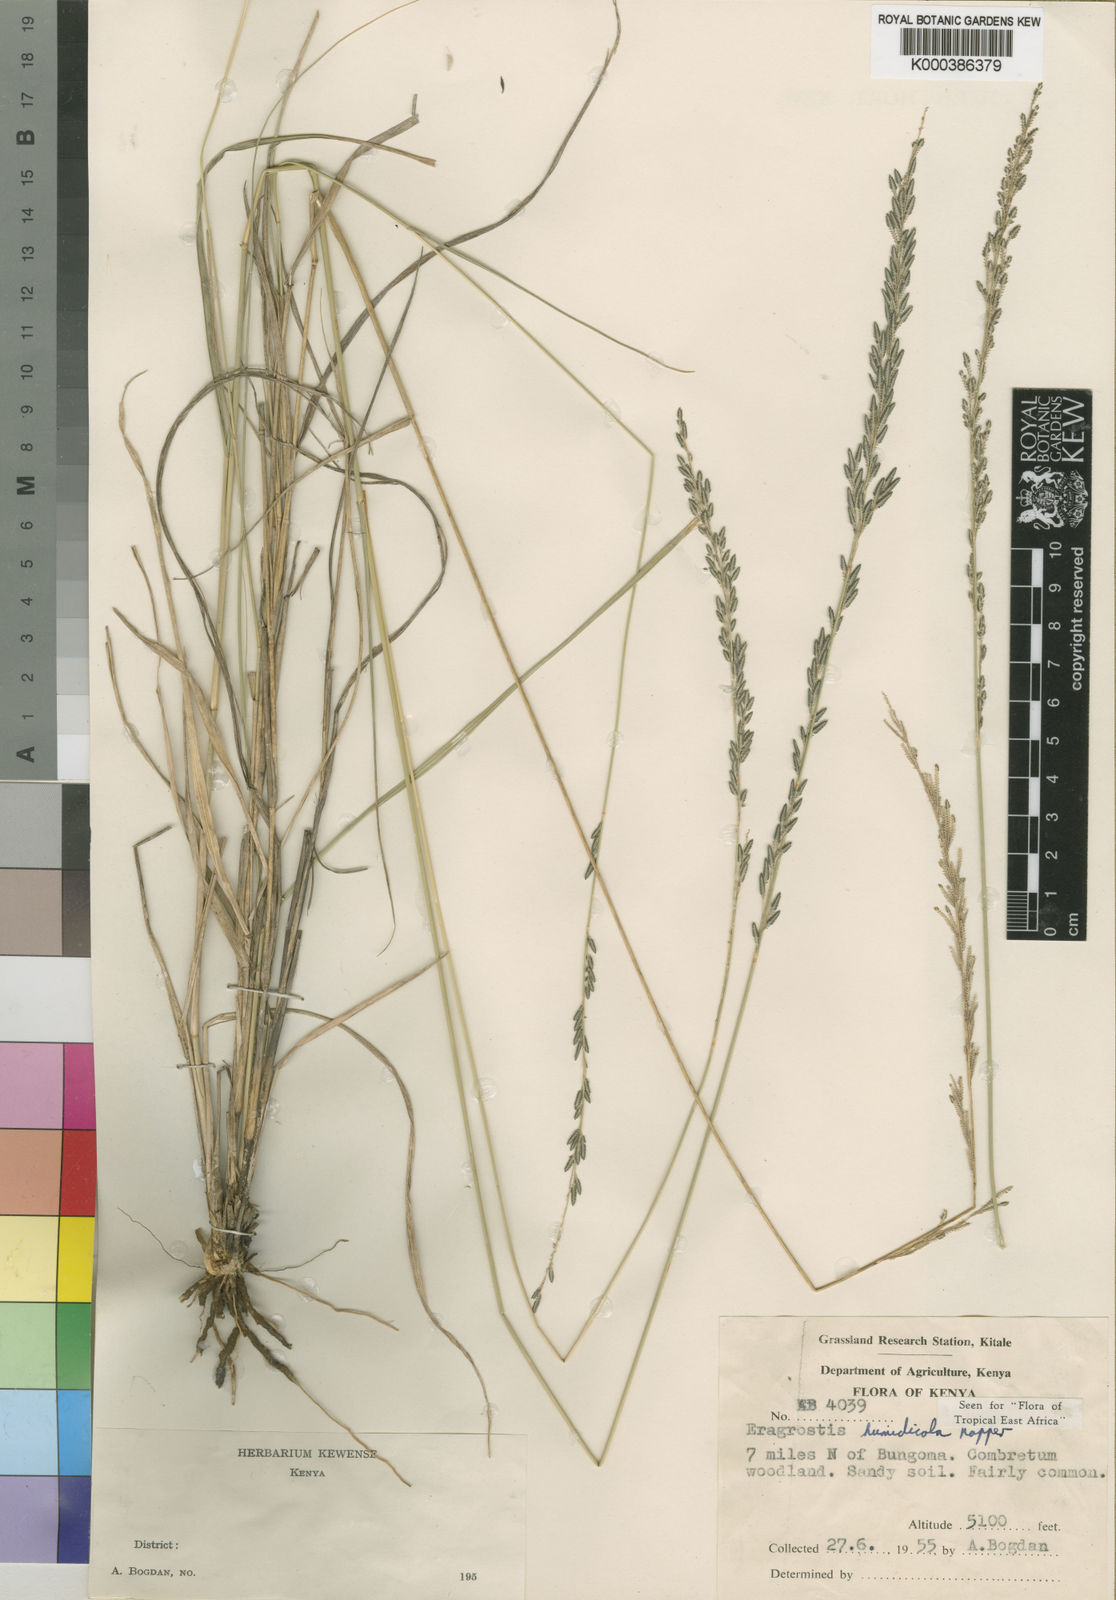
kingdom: Plantae
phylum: Tracheophyta
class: Liliopsida
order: Poales
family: Poaceae
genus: Eragrostis
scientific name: Eragrostis humidicola
